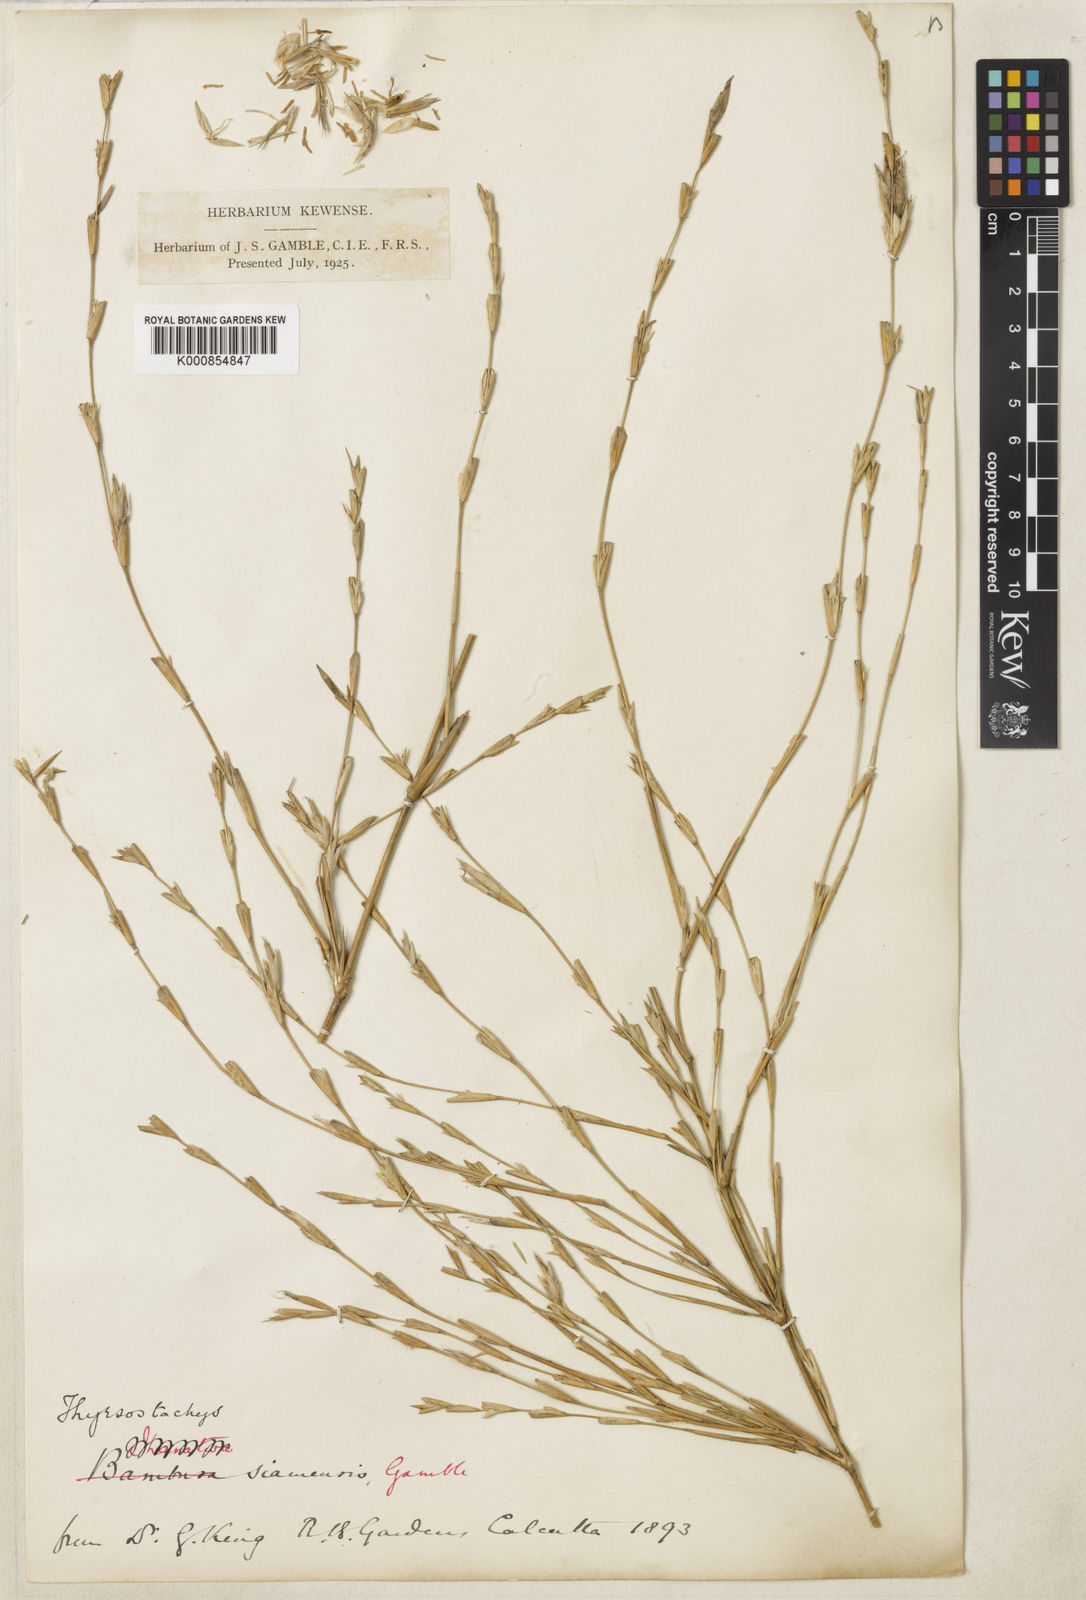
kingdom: Plantae
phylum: Tracheophyta
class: Liliopsida
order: Poales
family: Poaceae
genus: Thyrsostachys
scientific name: Thyrsostachys siamensis
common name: Thailand bamboo
